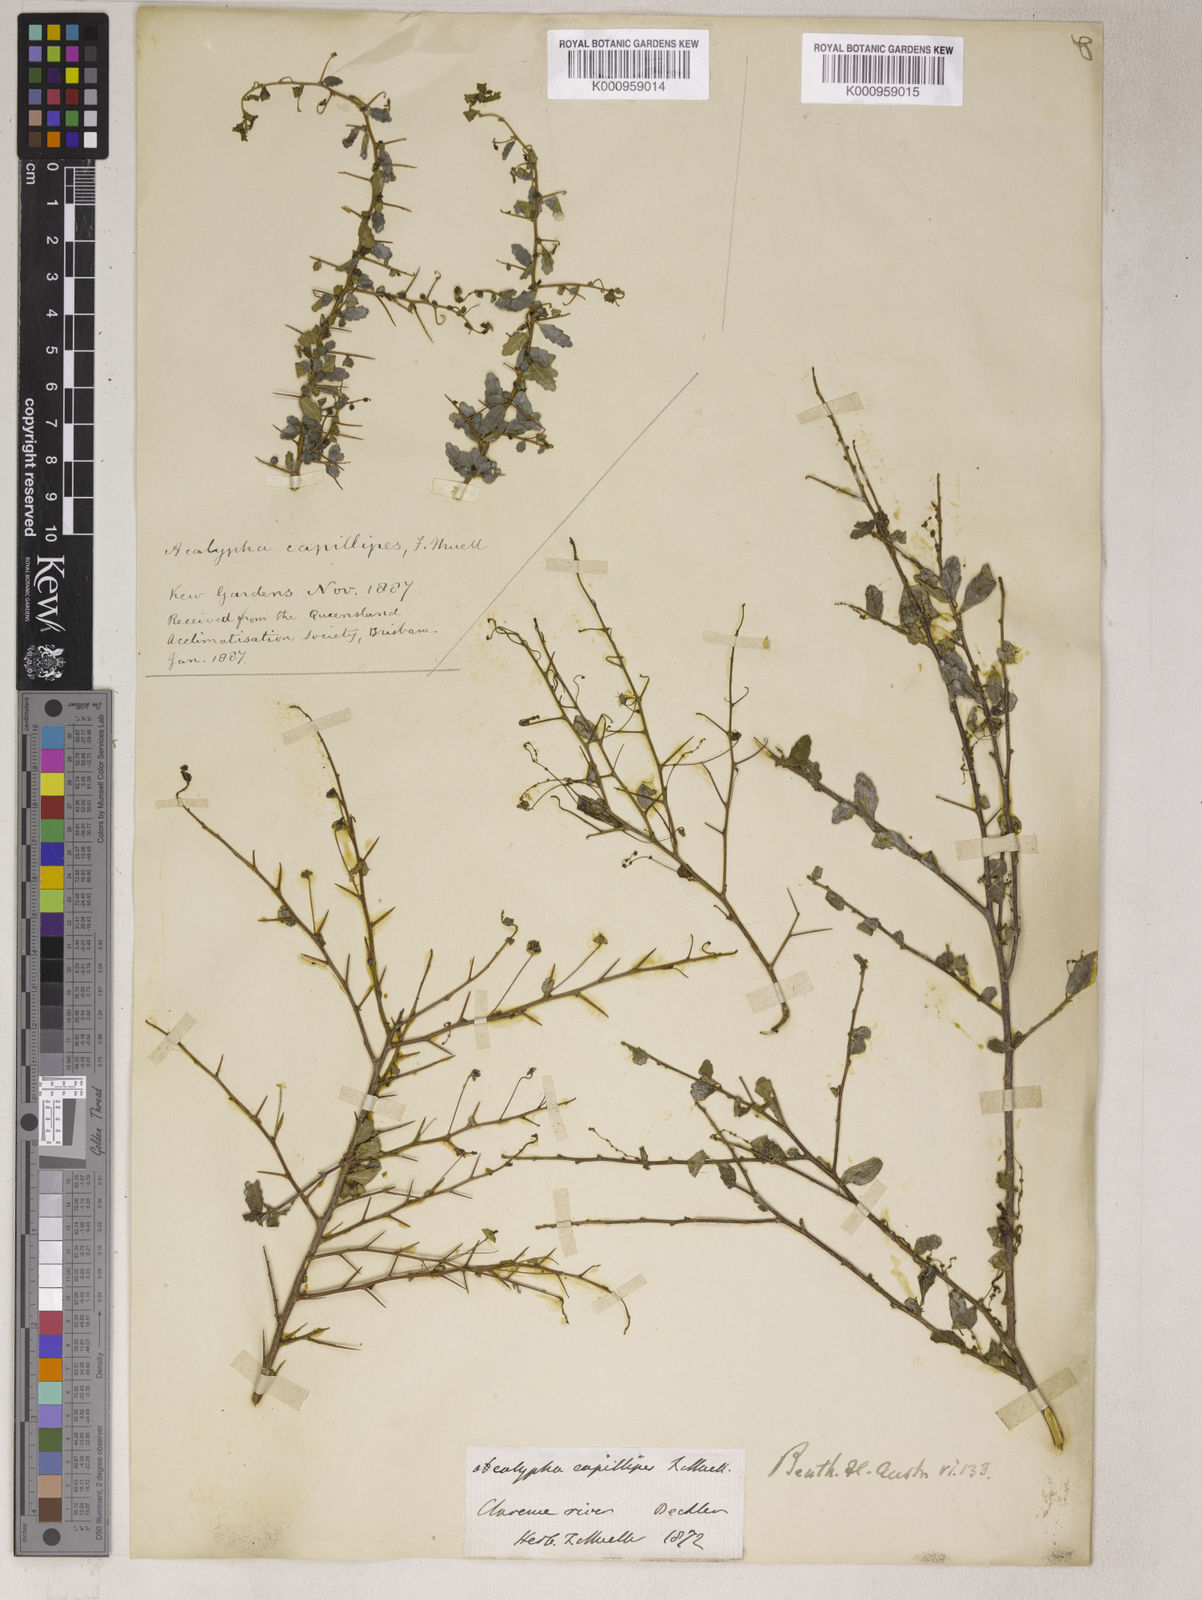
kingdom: Plantae
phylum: Tracheophyta
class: Magnoliopsida
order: Malpighiales
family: Euphorbiaceae
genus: Acalypha
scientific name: Acalypha
